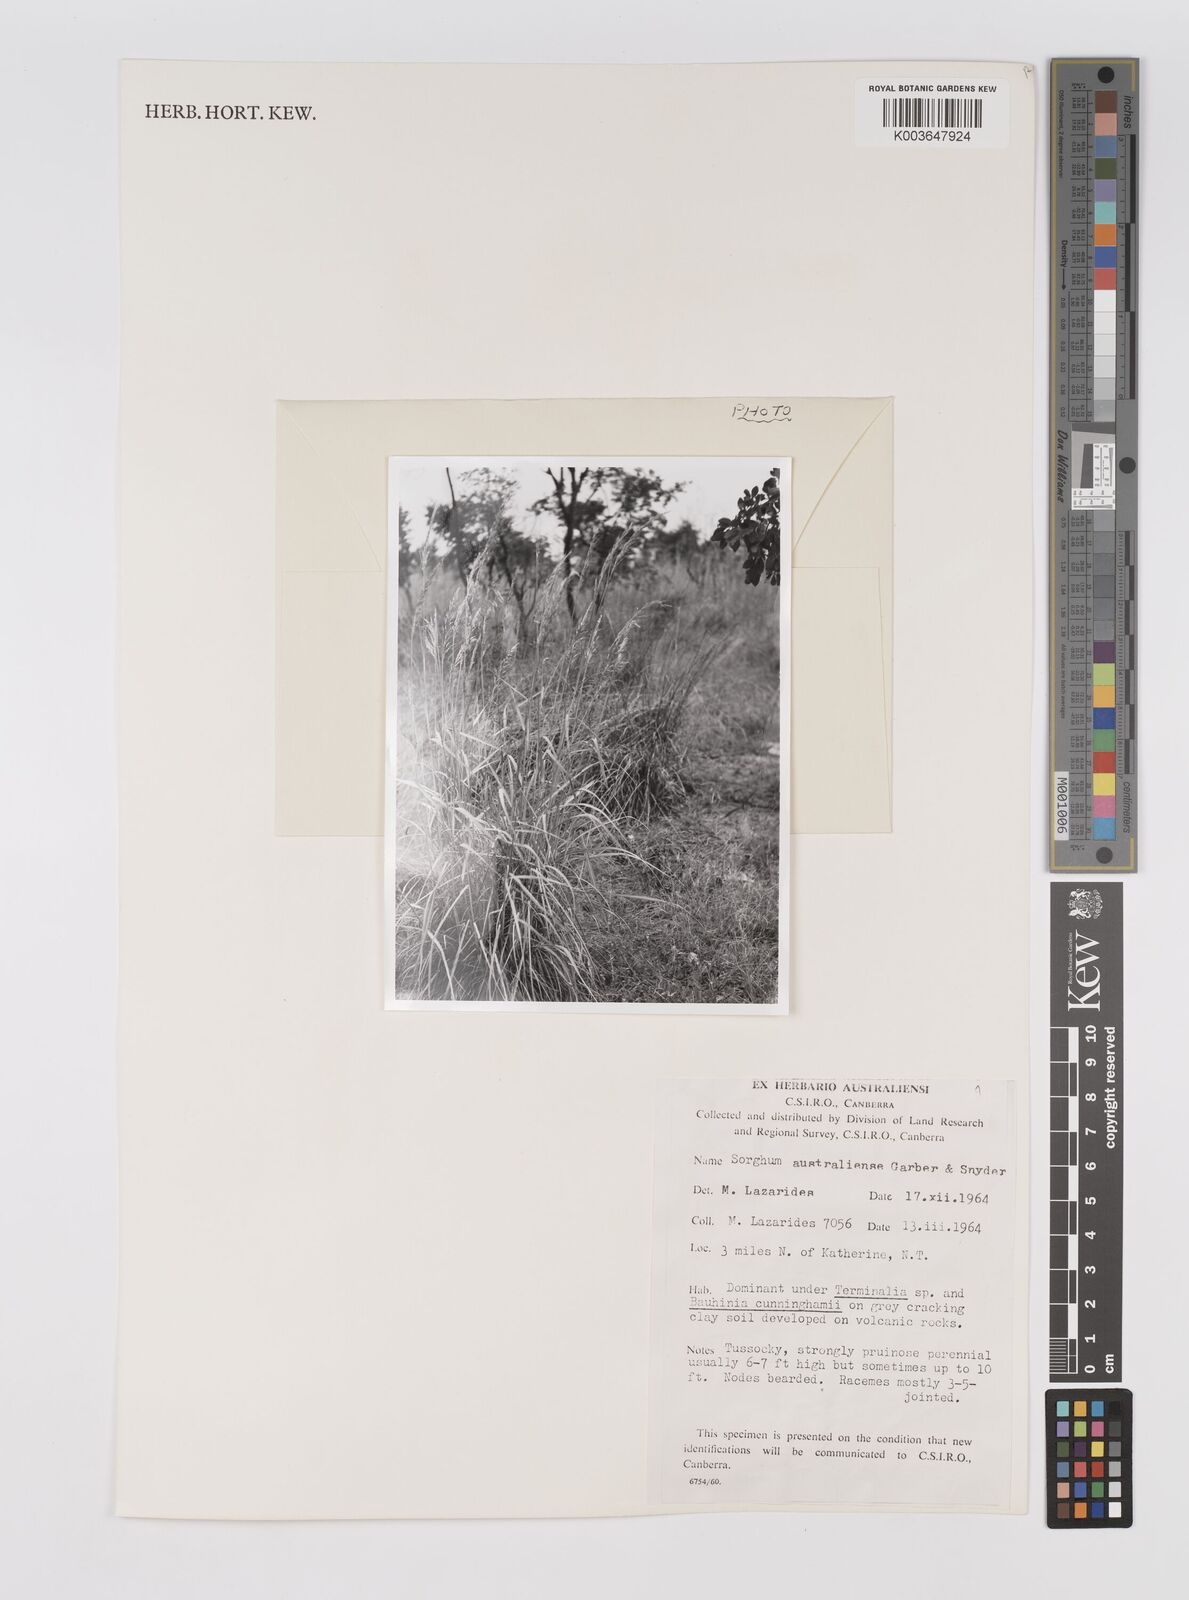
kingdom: Plantae
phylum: Tracheophyta
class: Liliopsida
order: Poales
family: Poaceae
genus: Sarga
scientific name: Sarga timorensis
